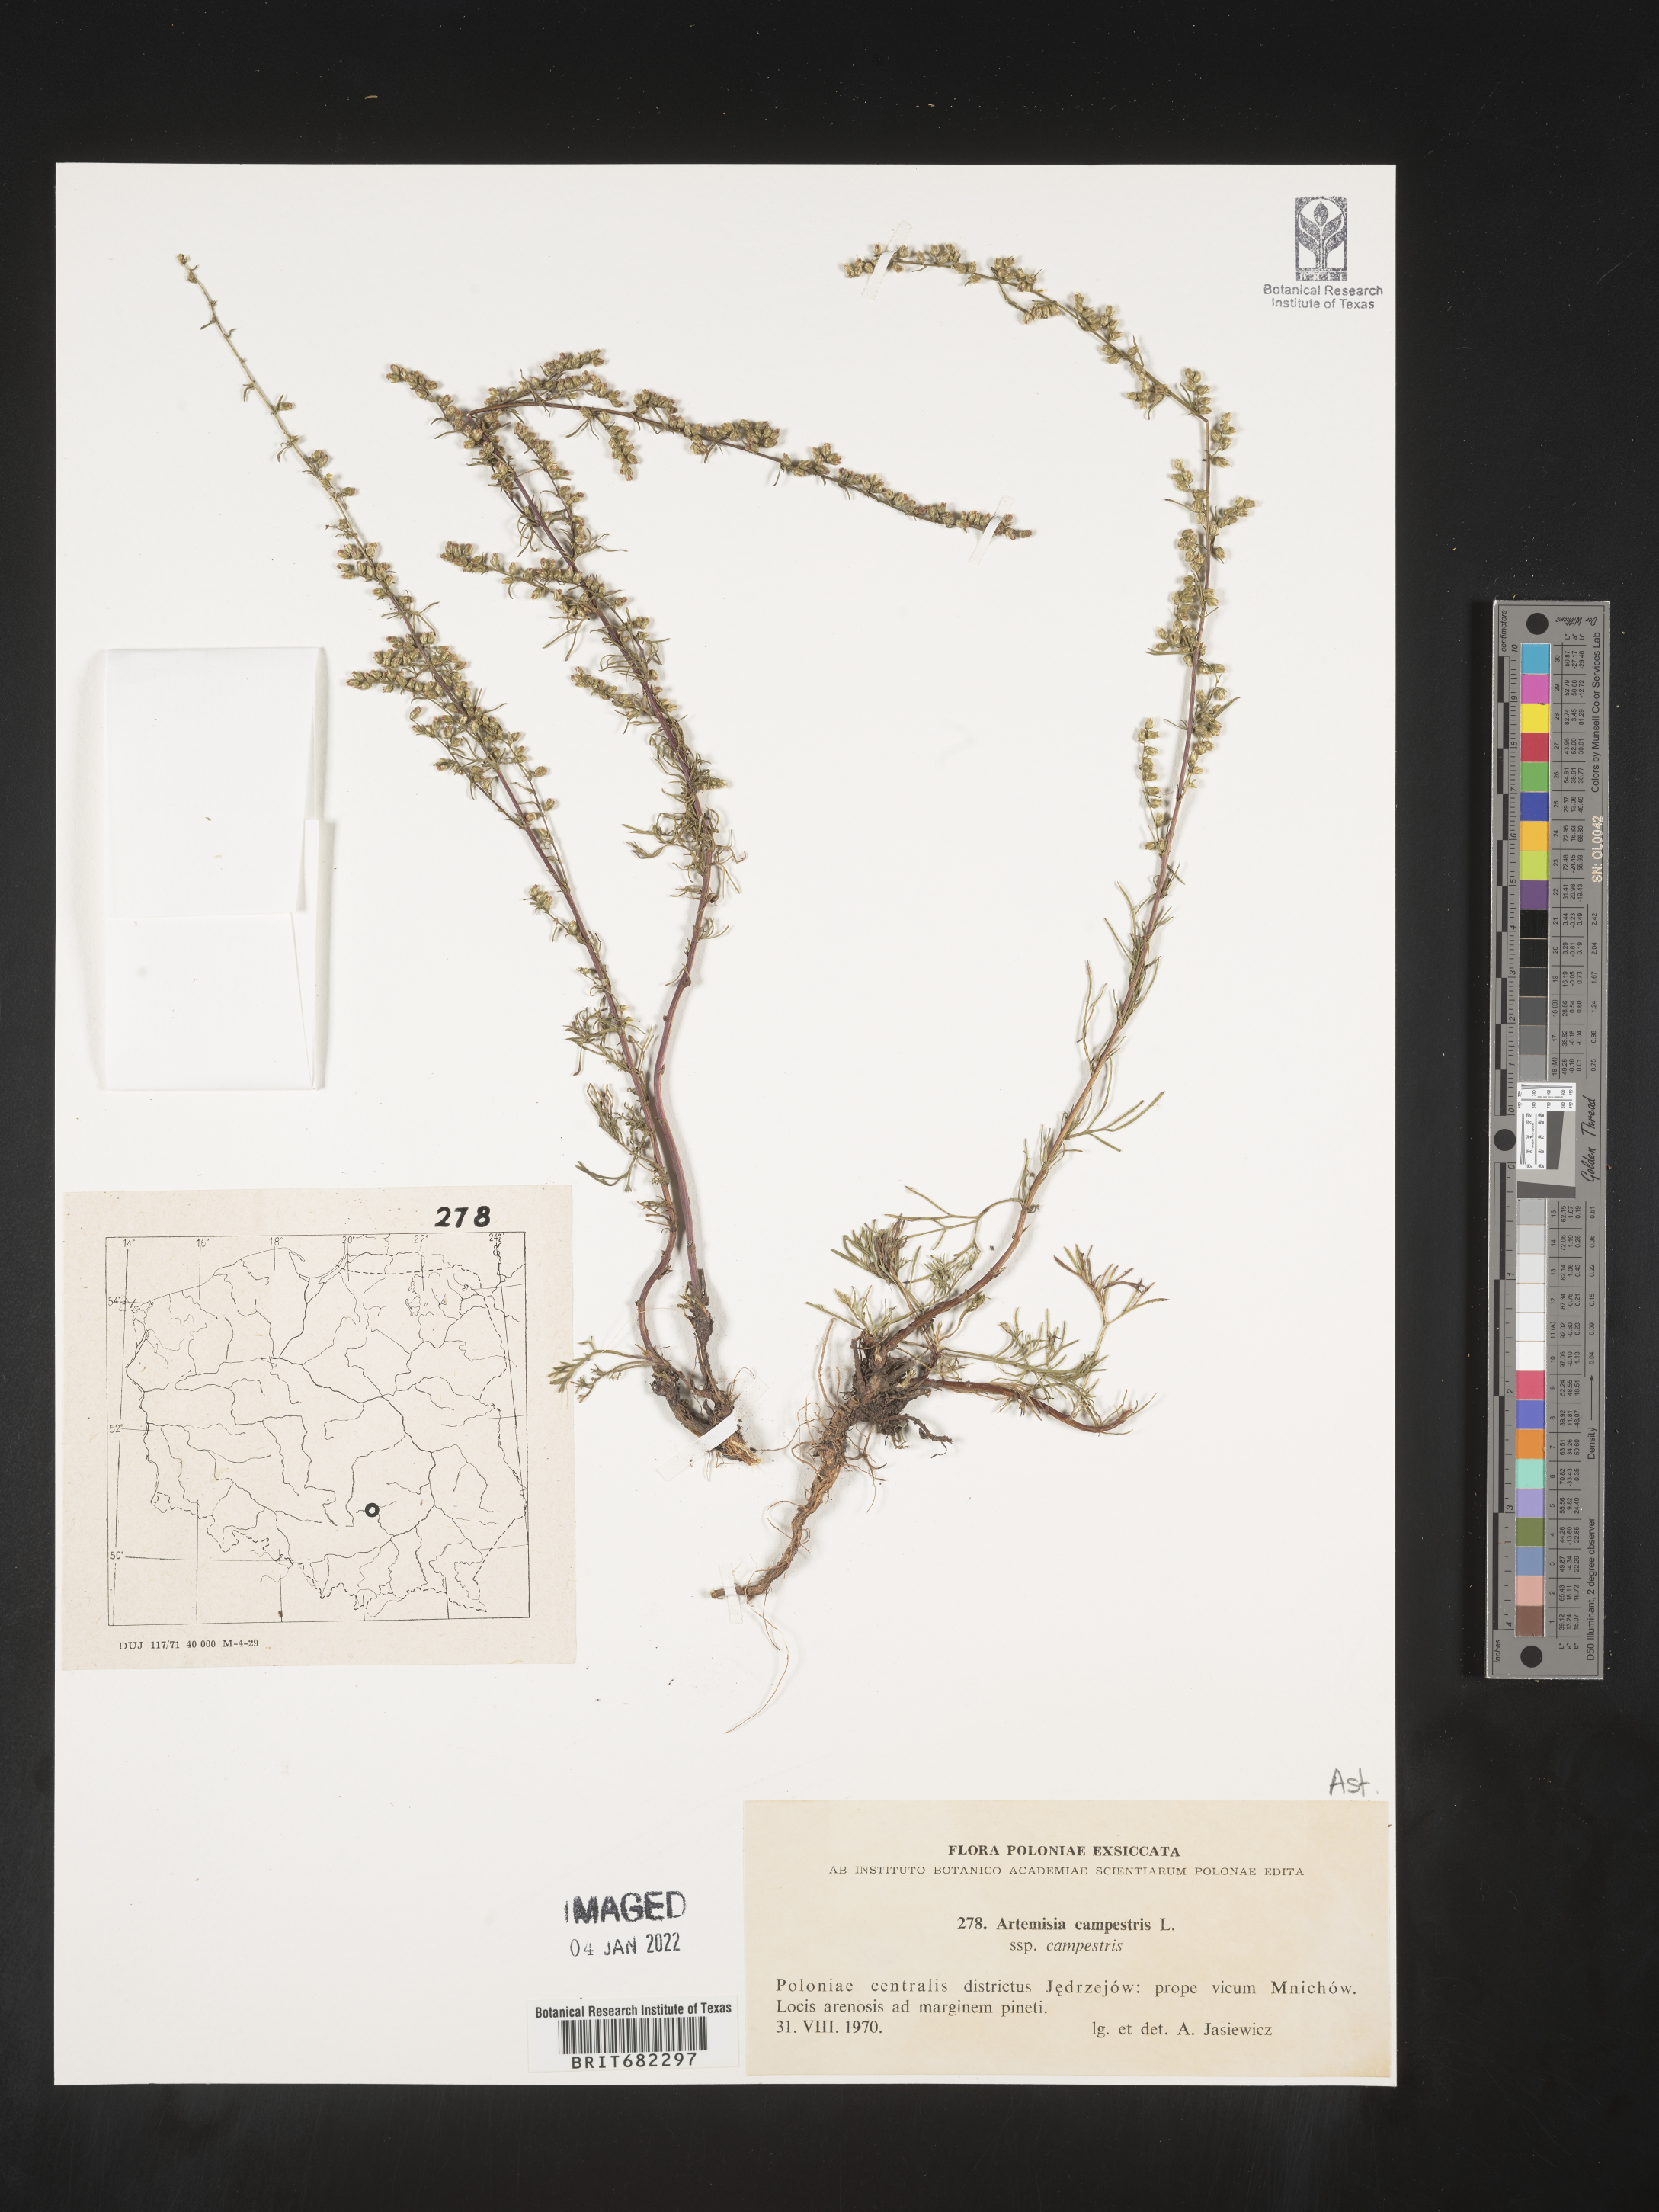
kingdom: Plantae
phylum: Tracheophyta
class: Magnoliopsida
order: Asterales
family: Asteraceae
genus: Artemisia
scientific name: Artemisia campestris
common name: Field wormwood
